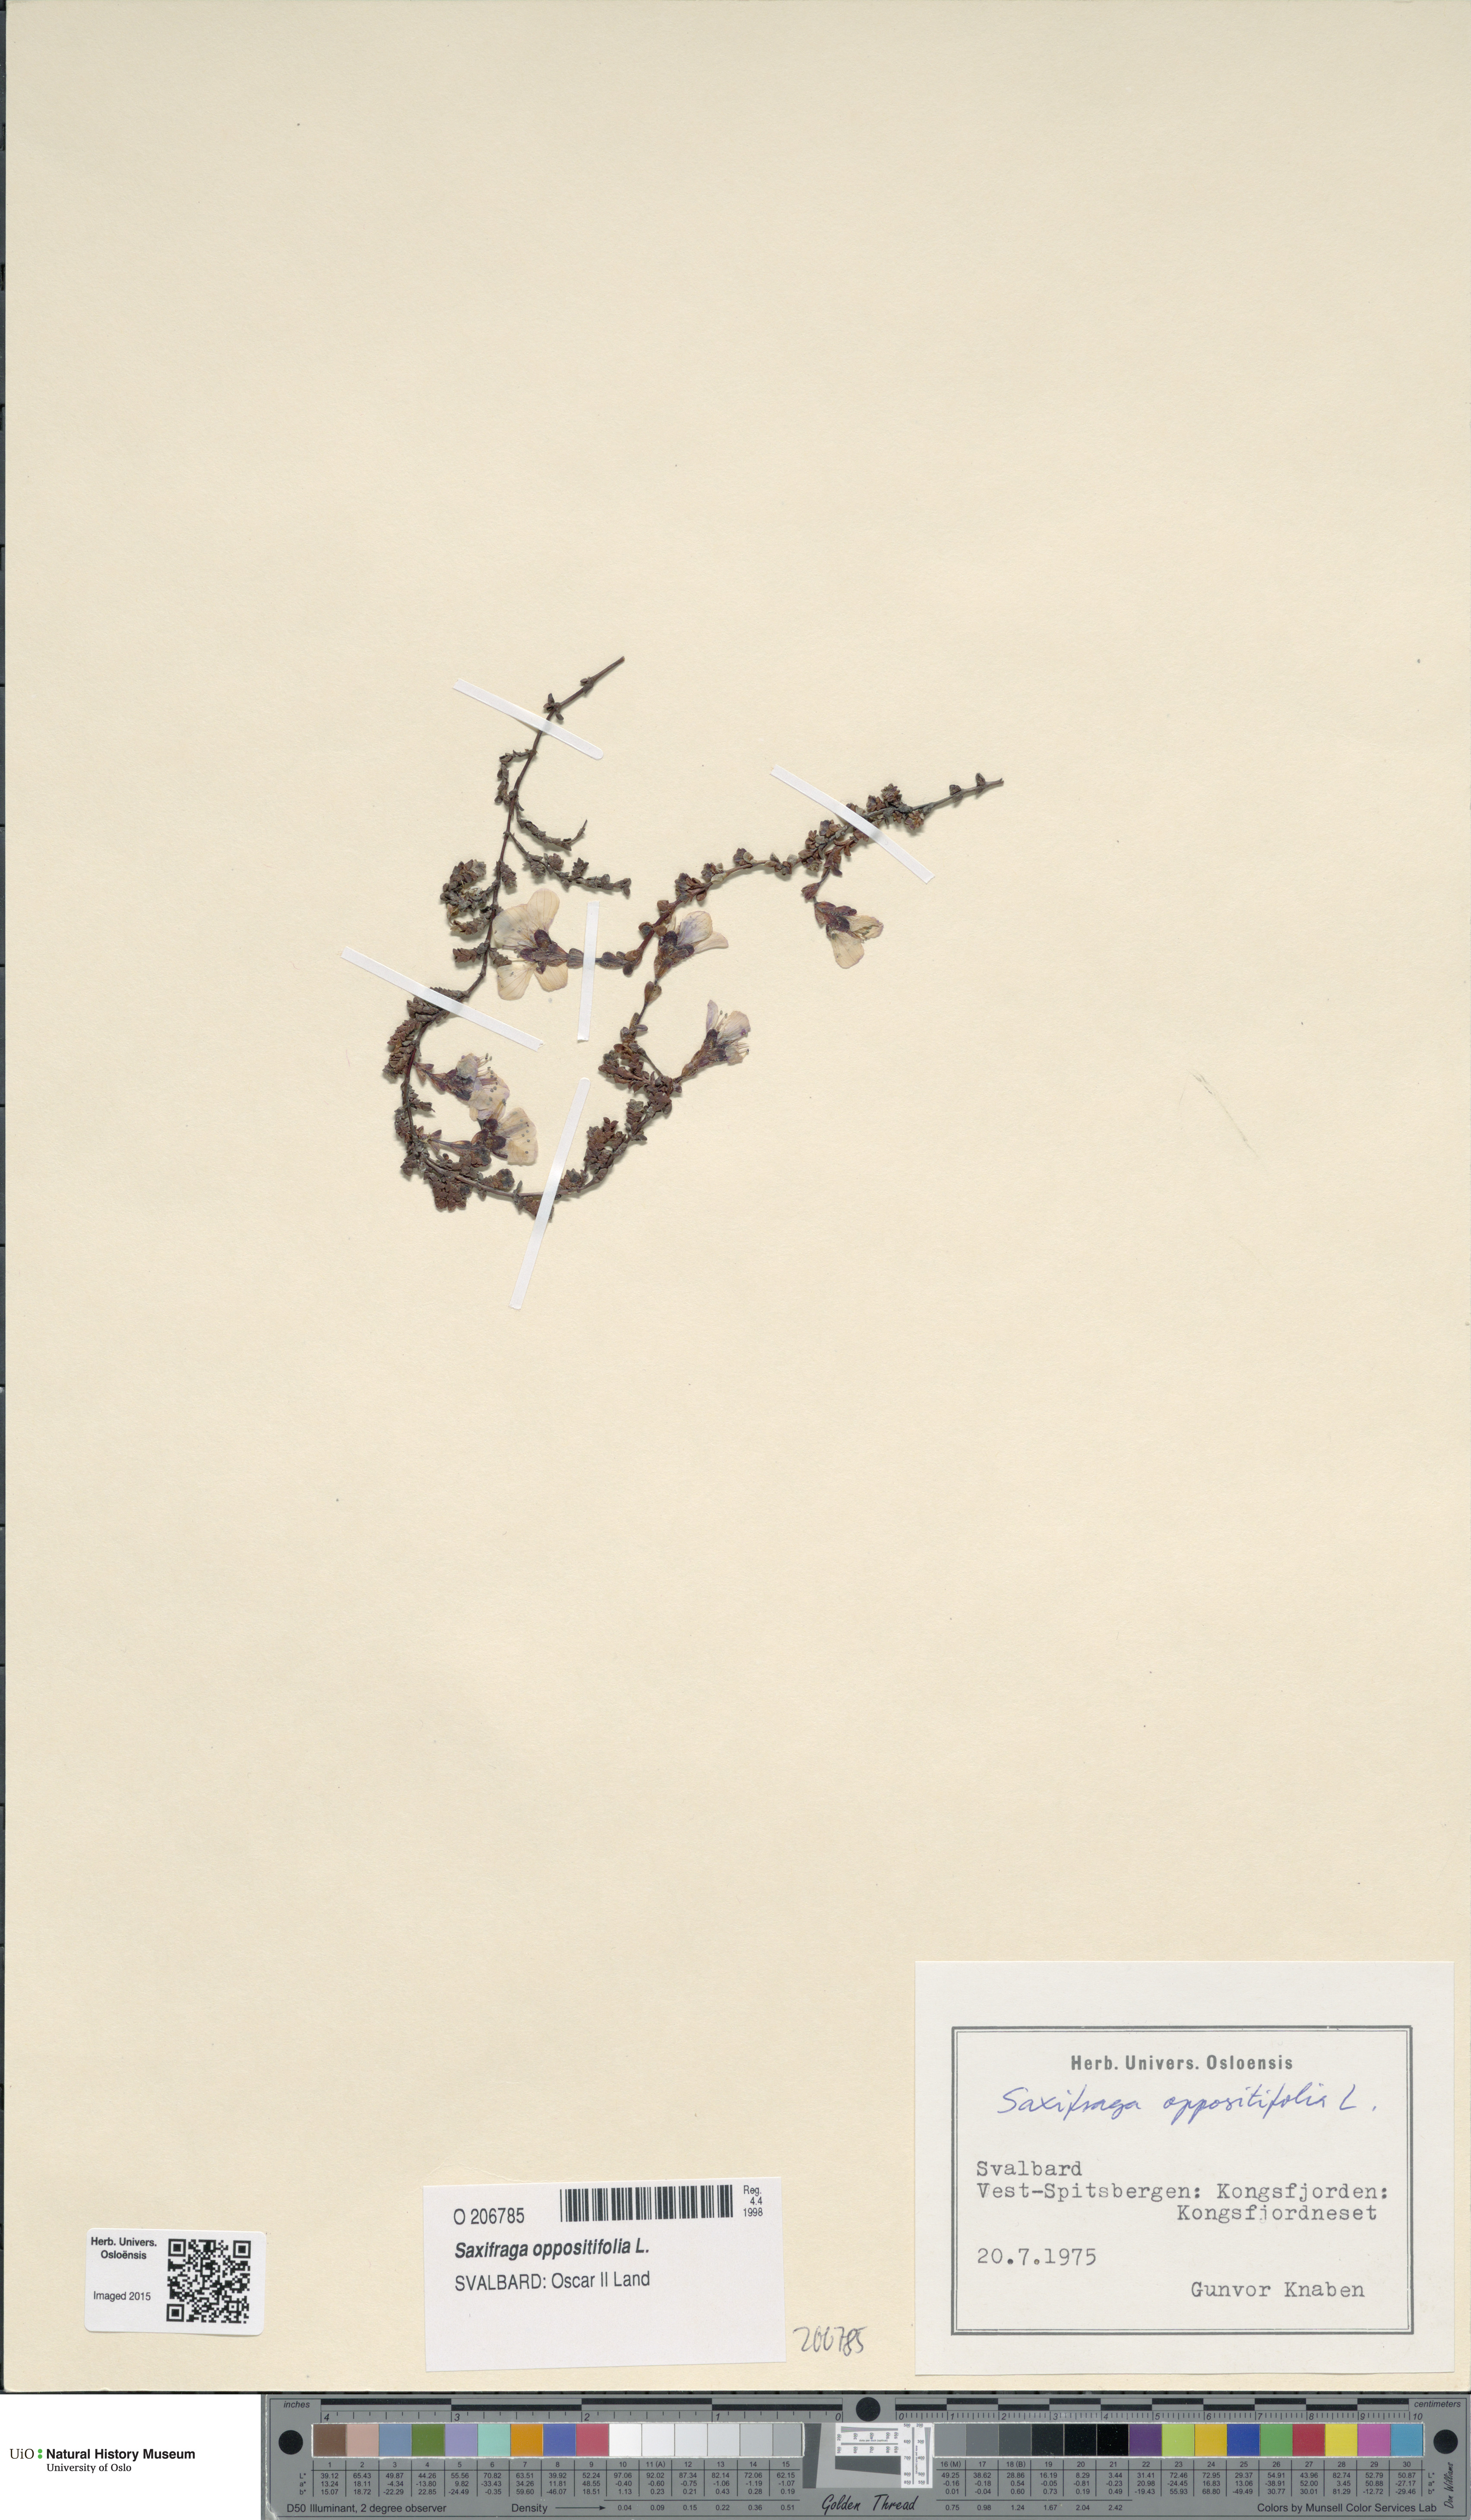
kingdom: Plantae
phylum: Tracheophyta
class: Magnoliopsida
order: Saxifragales
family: Saxifragaceae
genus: Saxifraga
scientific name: Saxifraga oppositifolia
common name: Purple saxifrage
